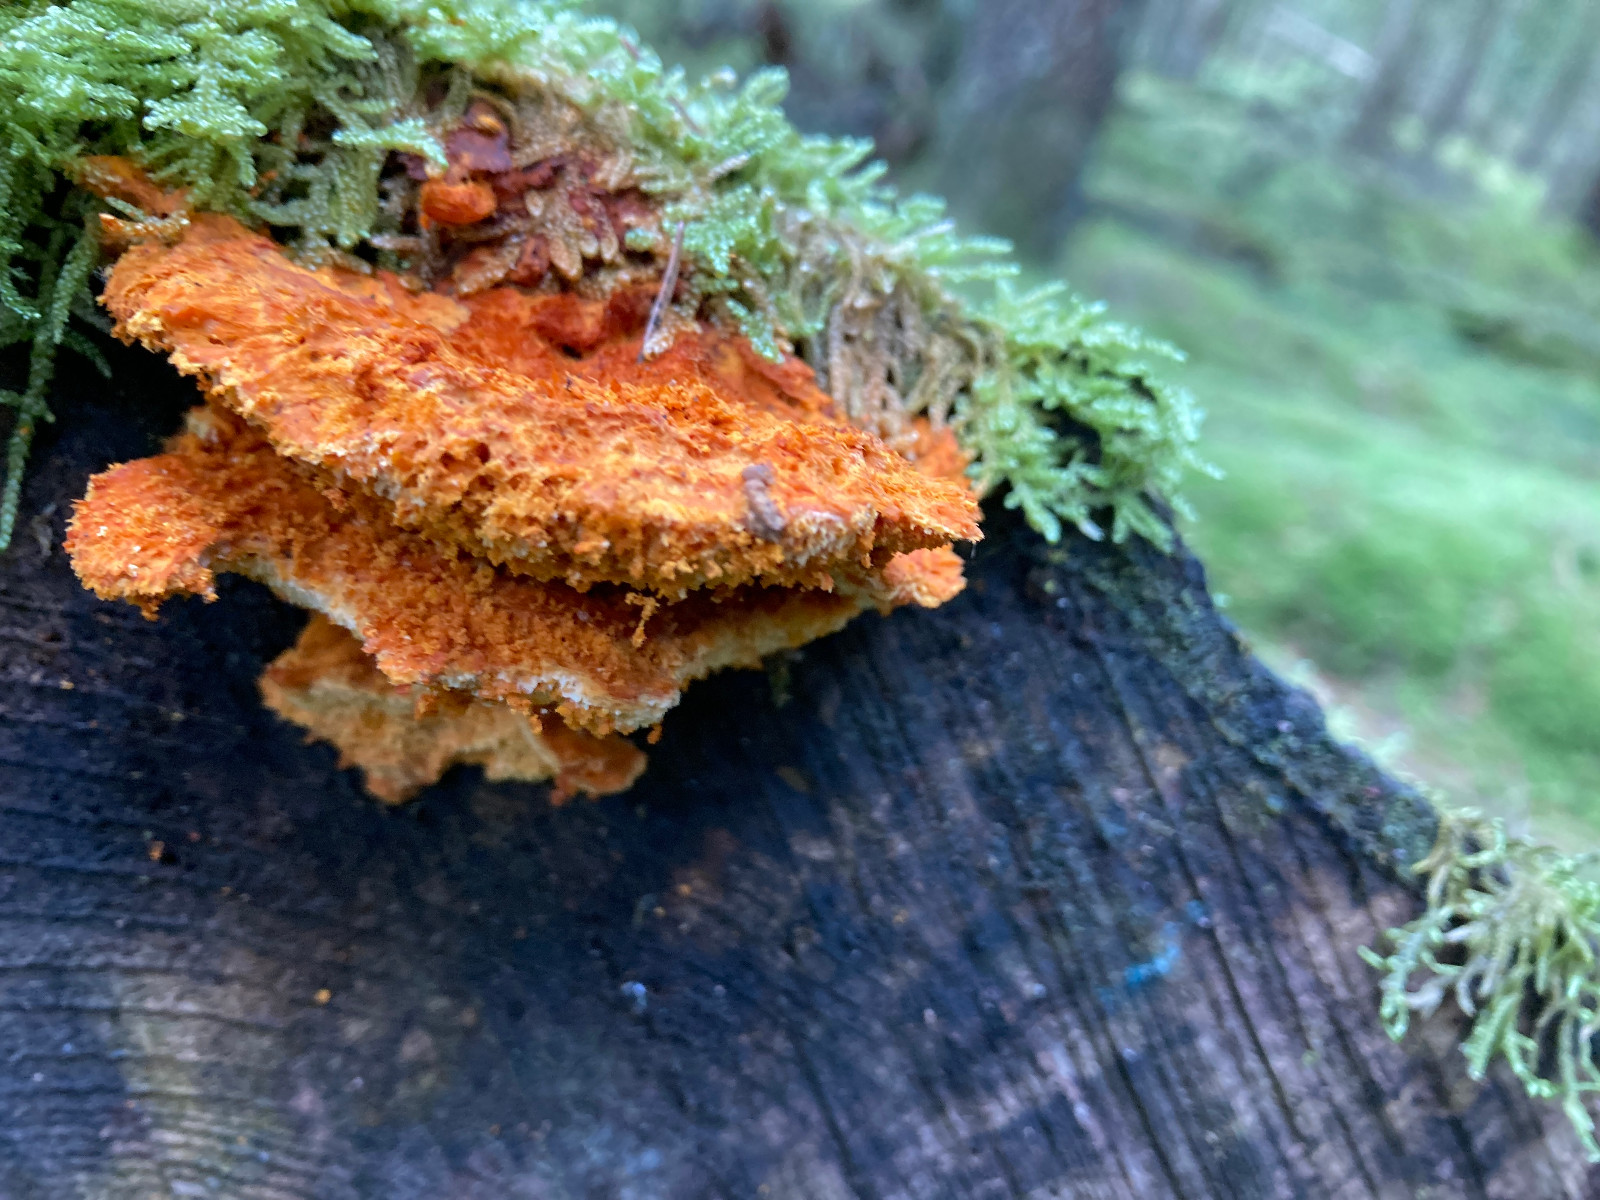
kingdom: Fungi
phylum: Basidiomycota
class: Agaricomycetes
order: Polyporales
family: Pycnoporellaceae
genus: Pycnoporellus
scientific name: Pycnoporellus fulgens
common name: flammeporesvamp
